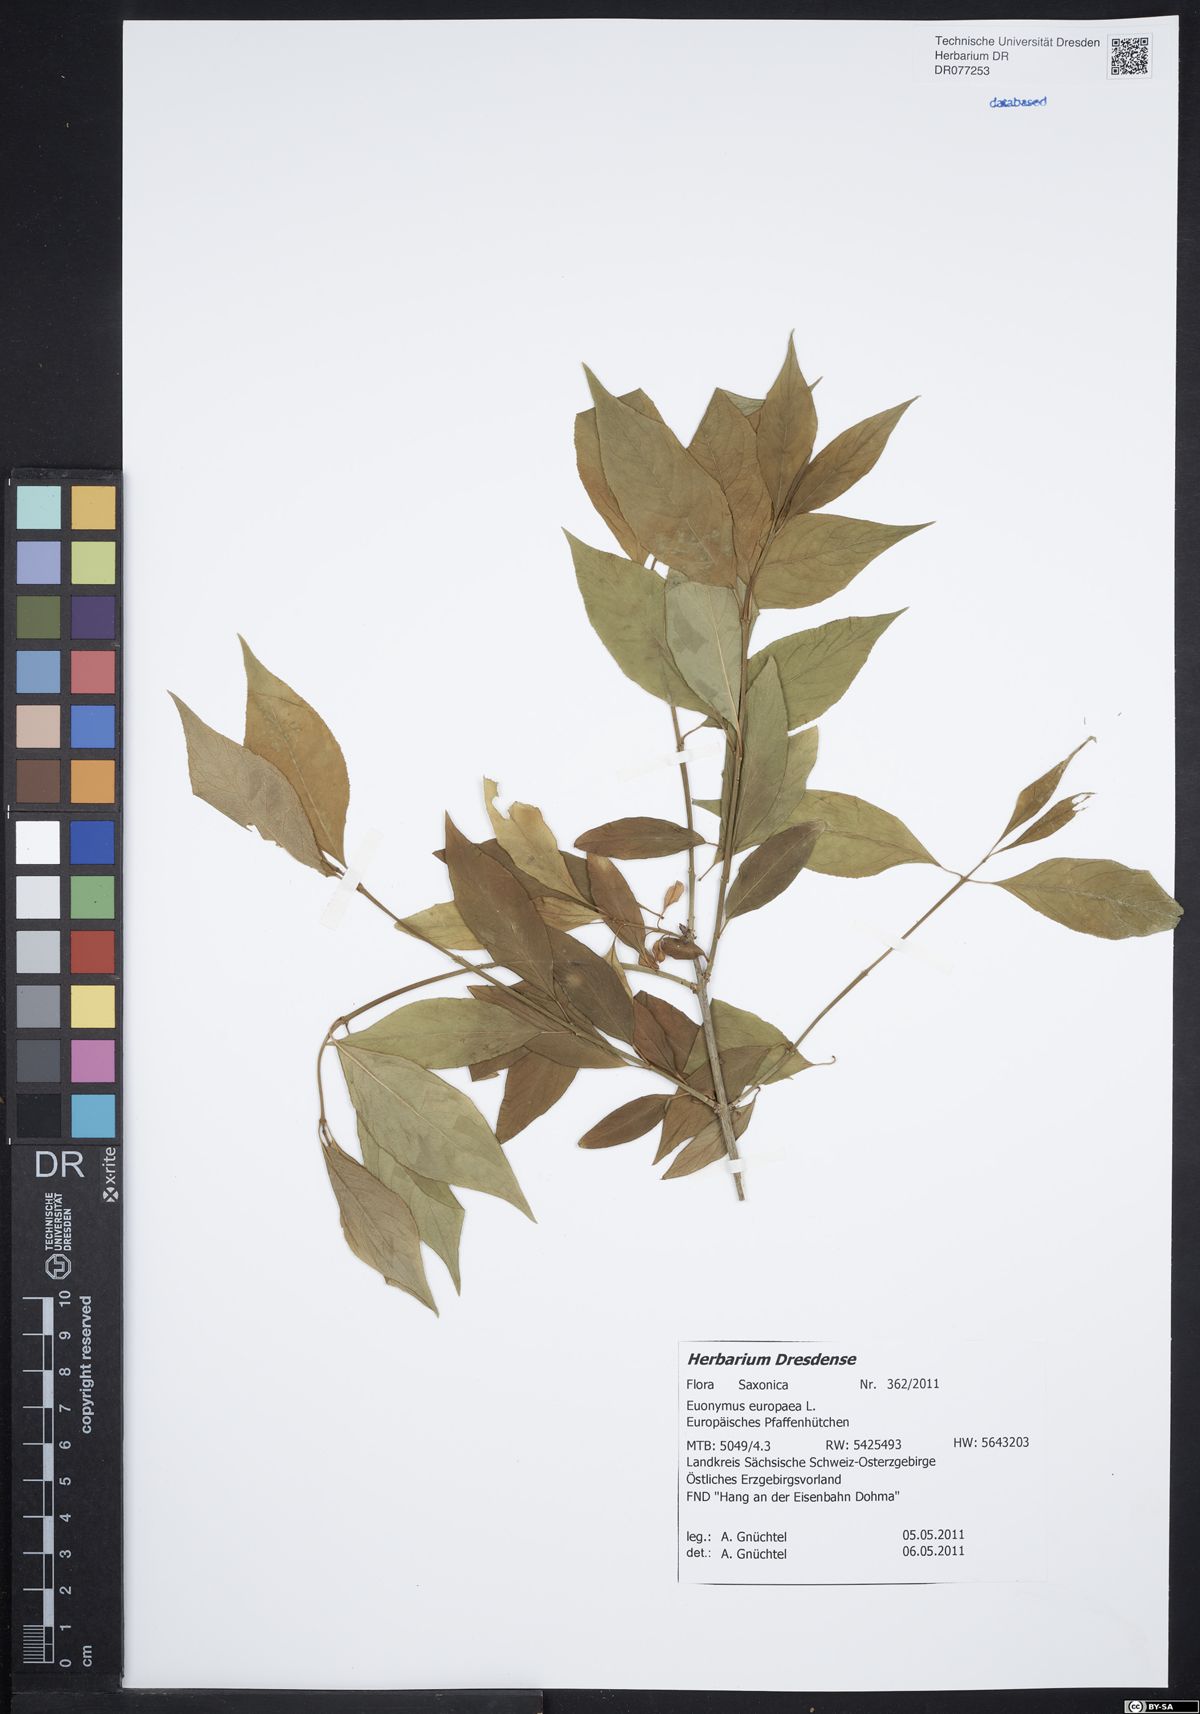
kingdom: Plantae
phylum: Tracheophyta
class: Magnoliopsida
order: Celastrales
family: Celastraceae
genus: Euonymus
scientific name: Euonymus europaeus
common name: Spindle
